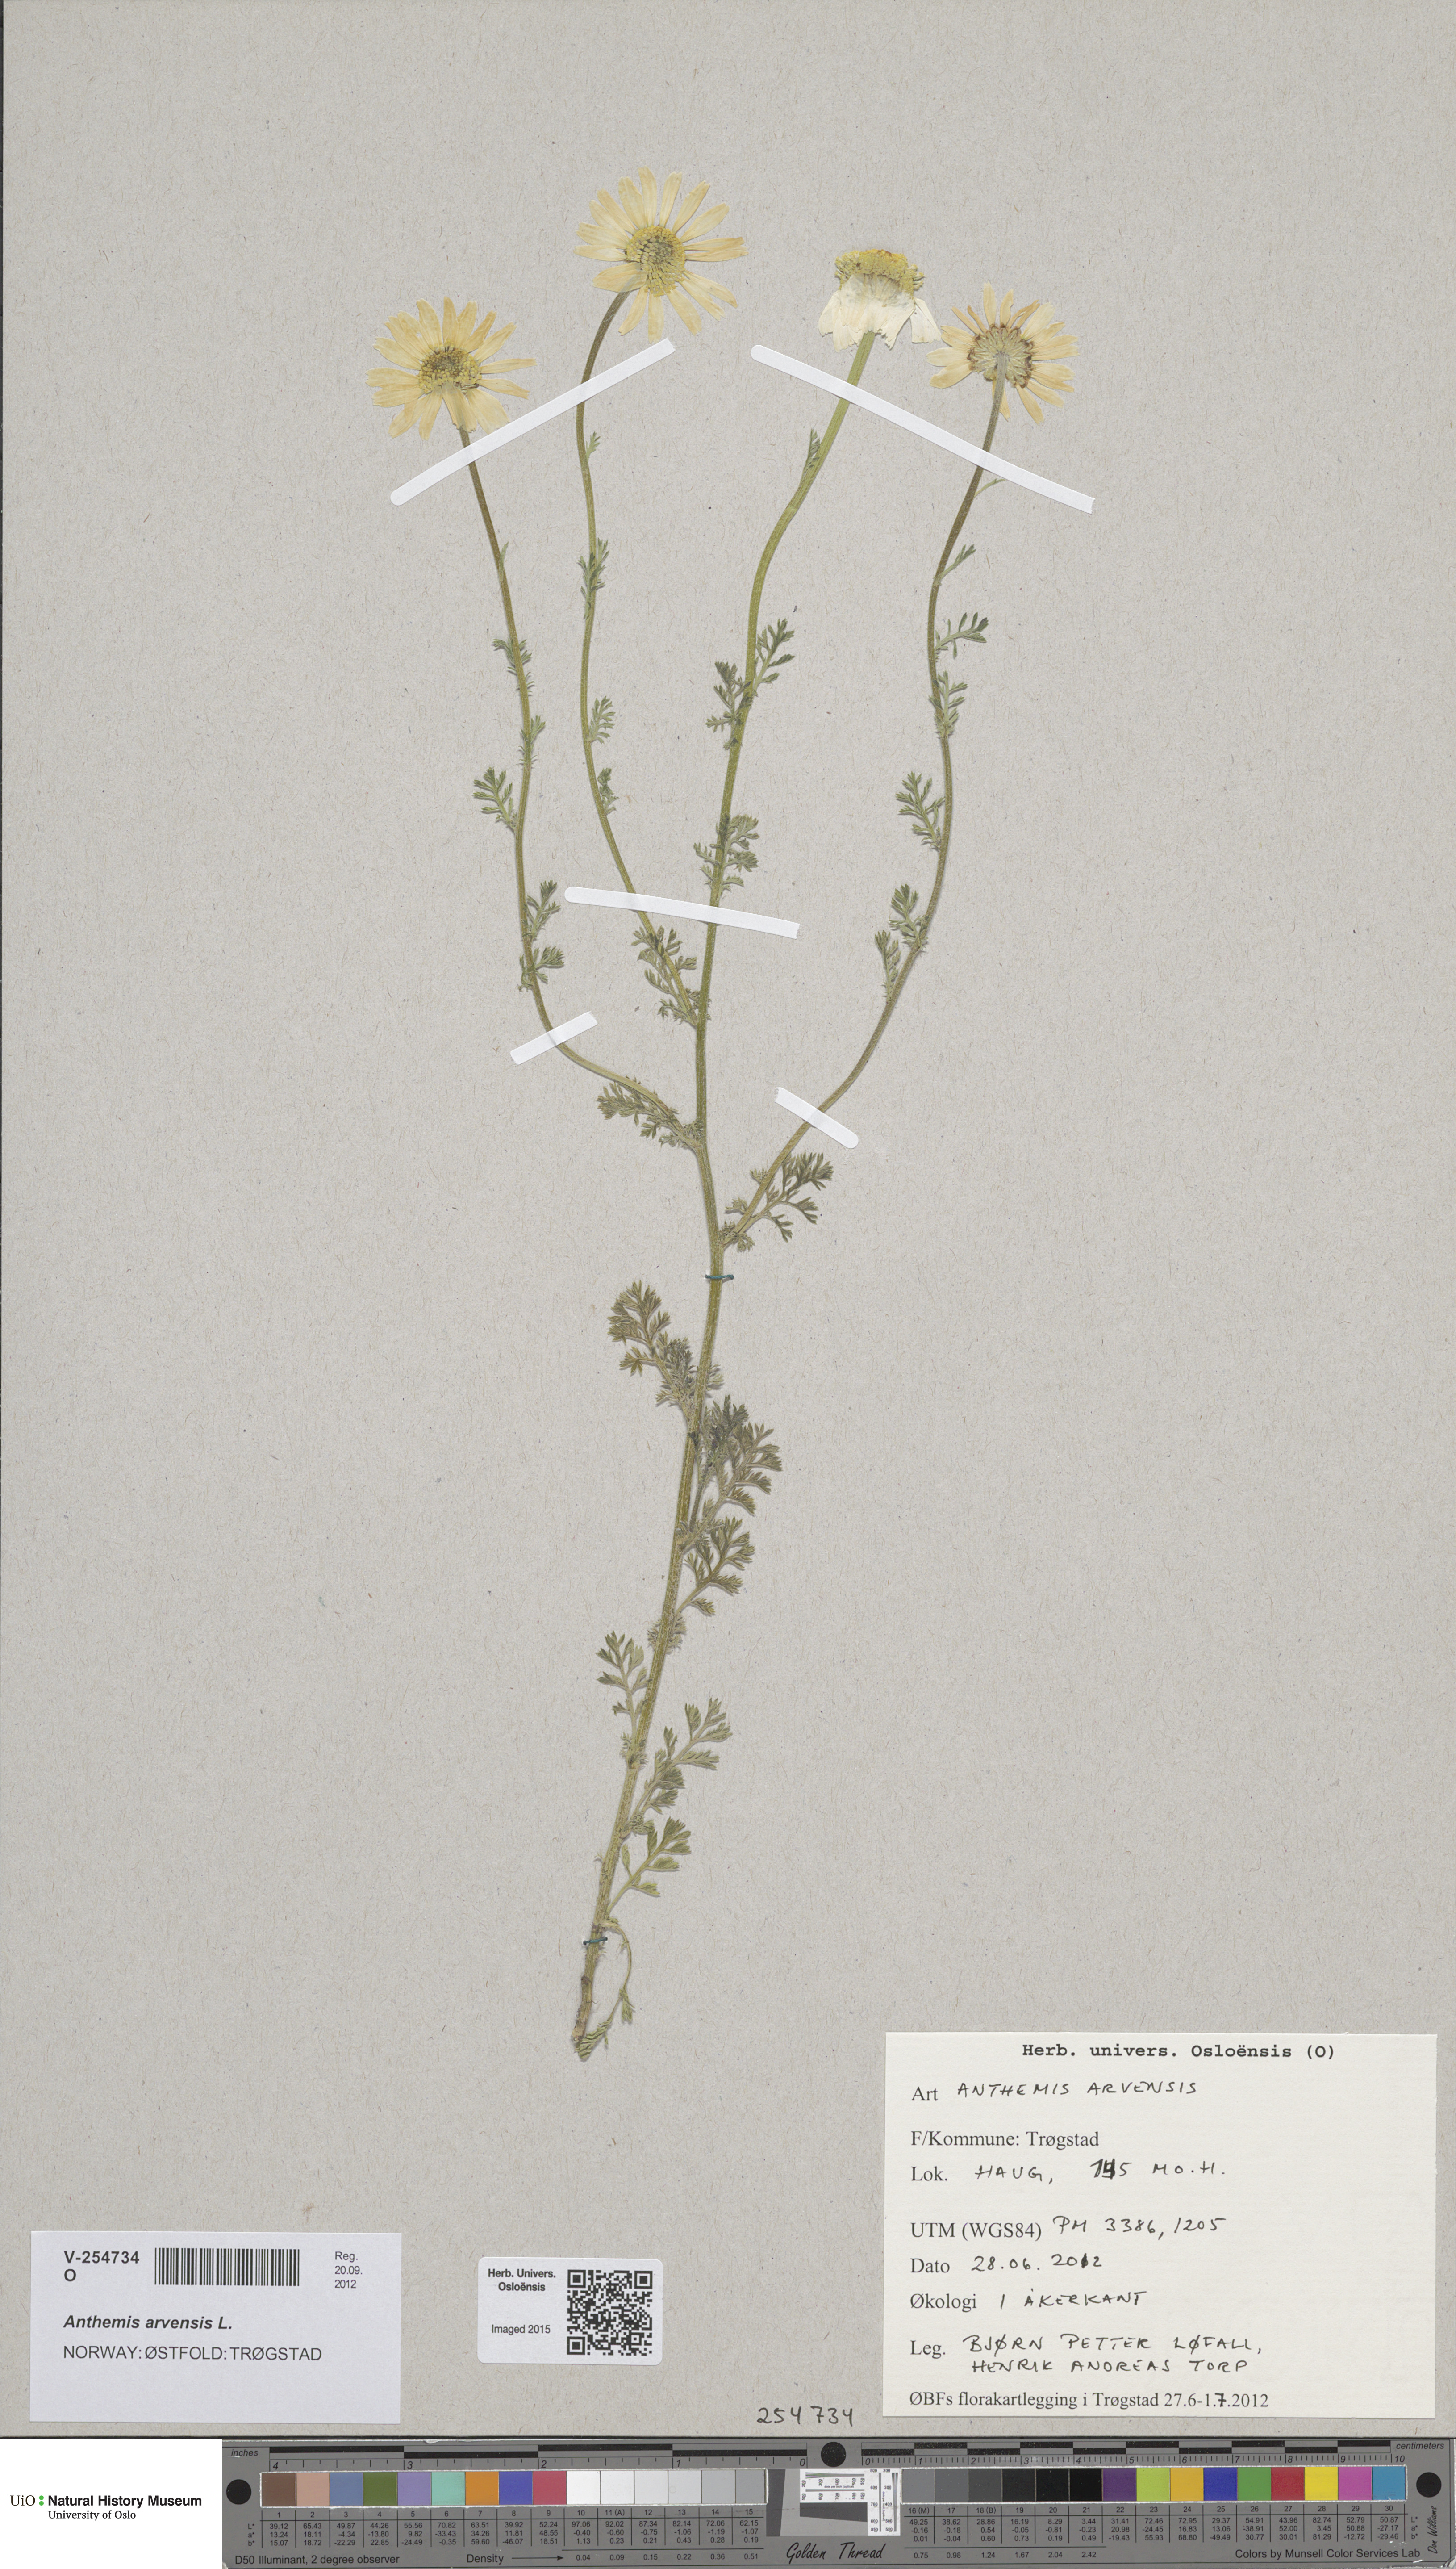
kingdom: Plantae
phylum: Tracheophyta
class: Magnoliopsida
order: Asterales
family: Asteraceae
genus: Anthemis
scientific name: Anthemis arvensis
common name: Corn chamomile
